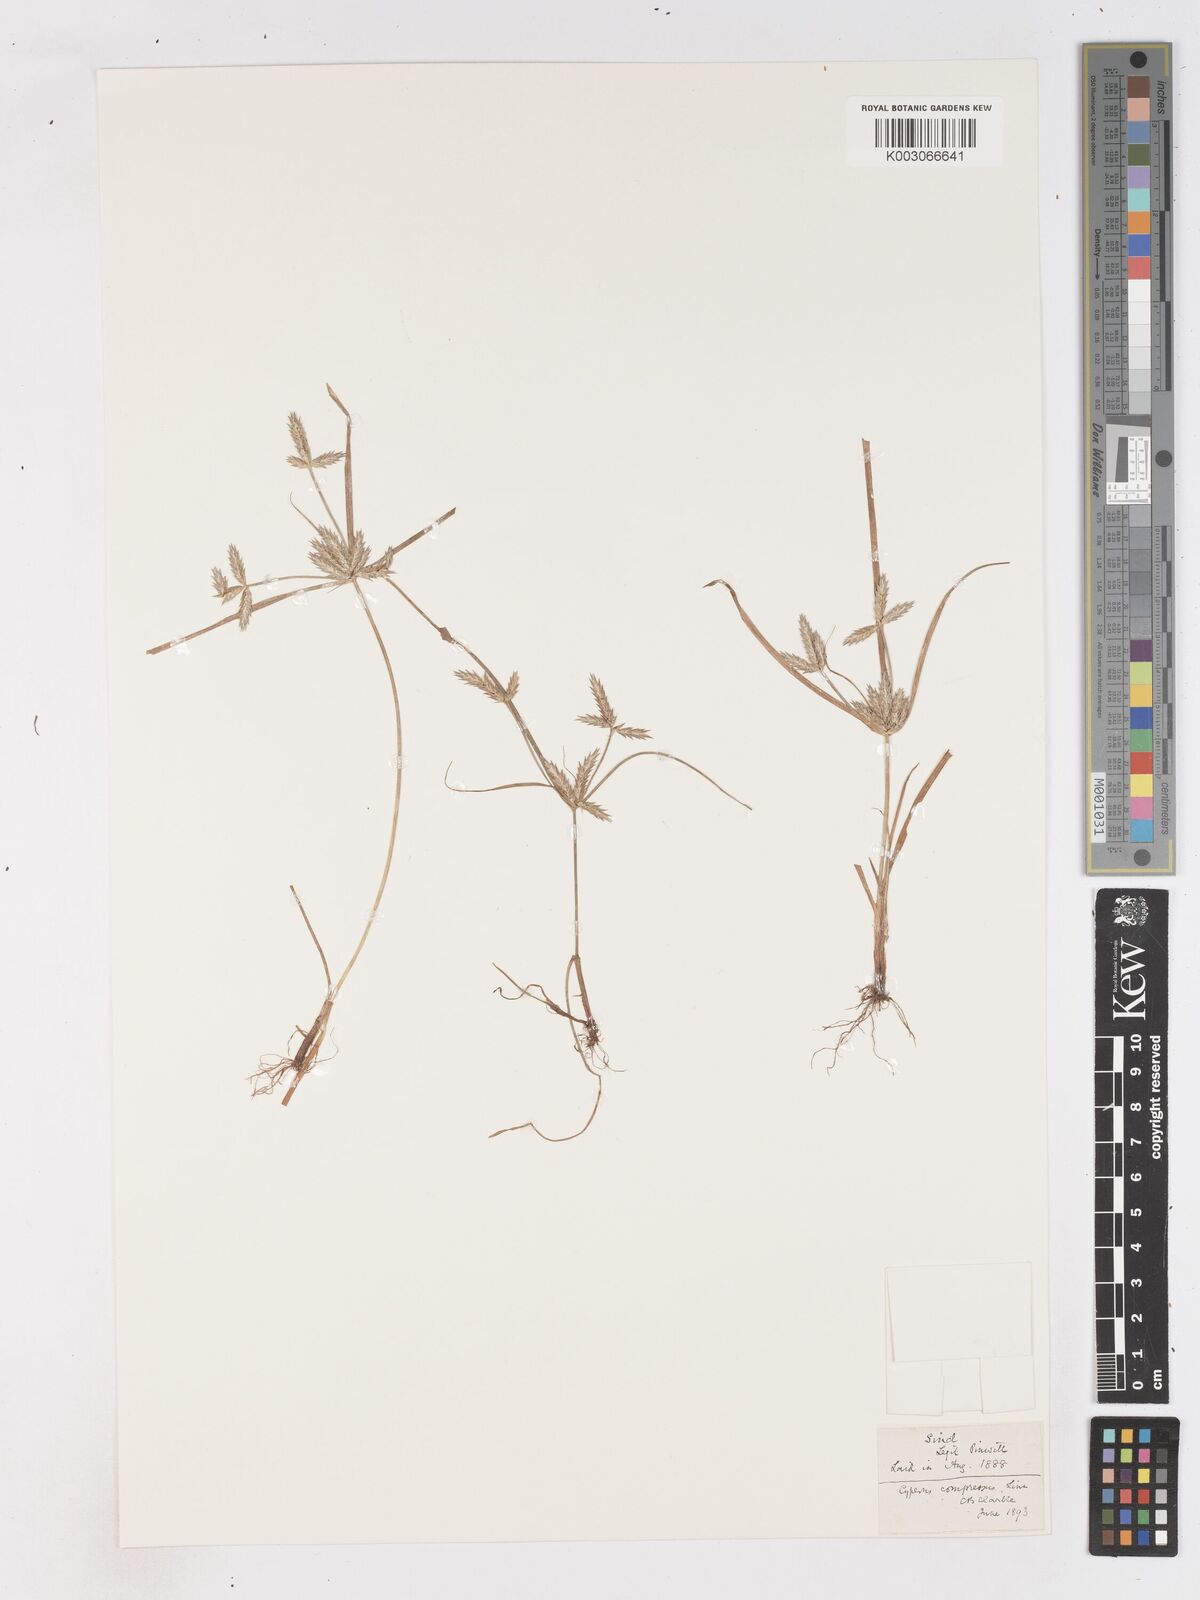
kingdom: Plantae
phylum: Tracheophyta
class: Liliopsida
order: Poales
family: Cyperaceae
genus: Cyperus
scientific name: Cyperus compressus
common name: Poorland flatsedge
